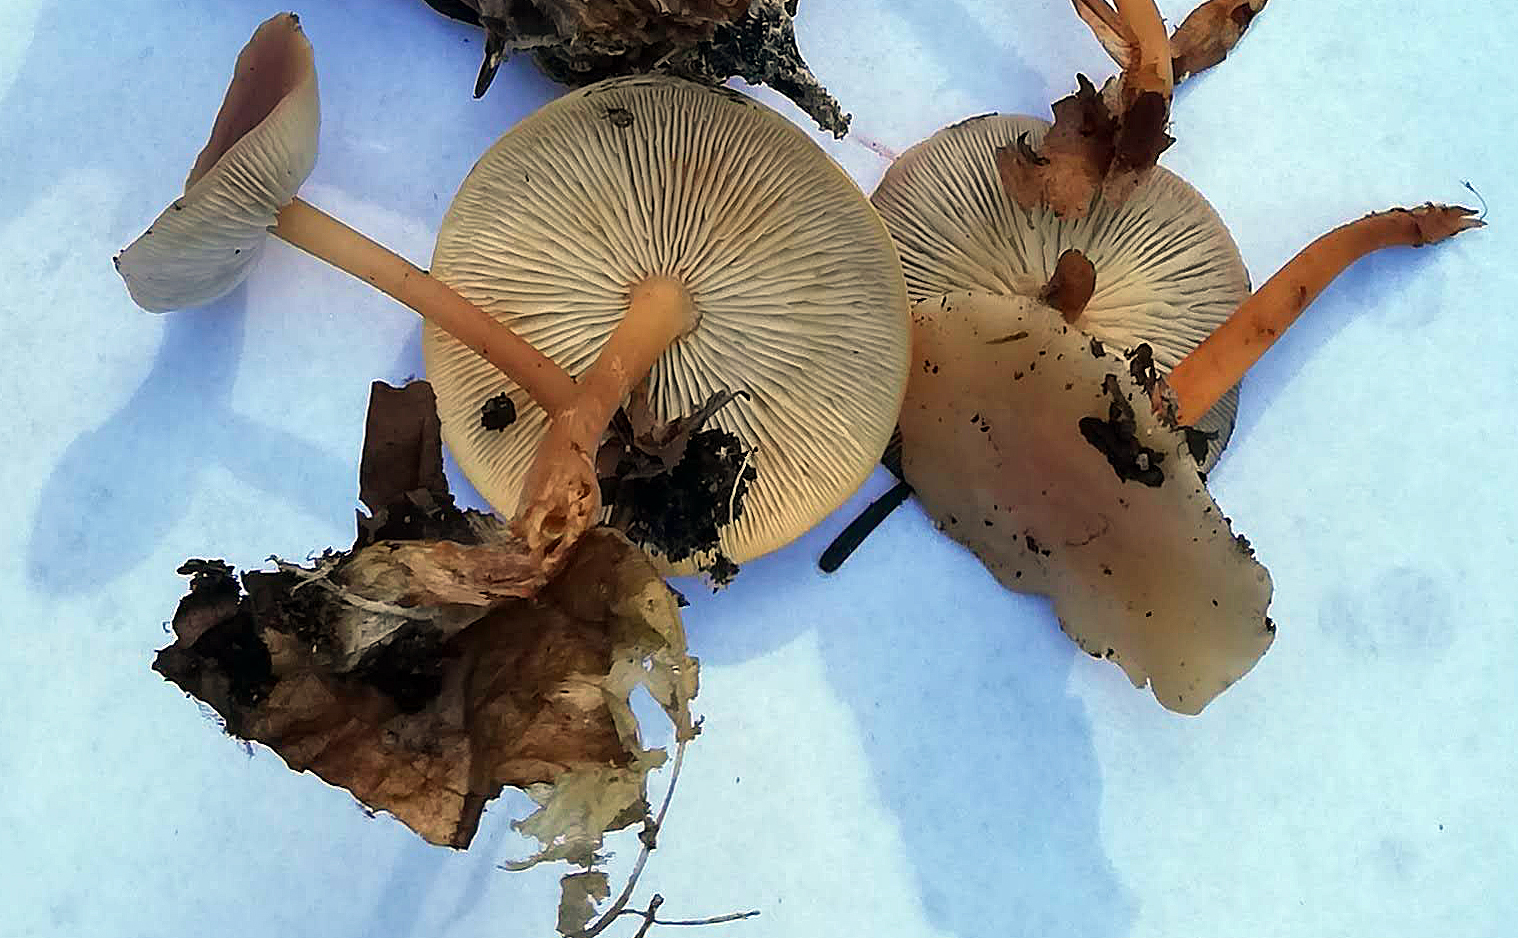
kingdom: Fungi
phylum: Basidiomycota
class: Agaricomycetes
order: Agaricales
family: Omphalotaceae
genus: Gymnopus
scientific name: Gymnopus dryophilus
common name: løv-fladhat
